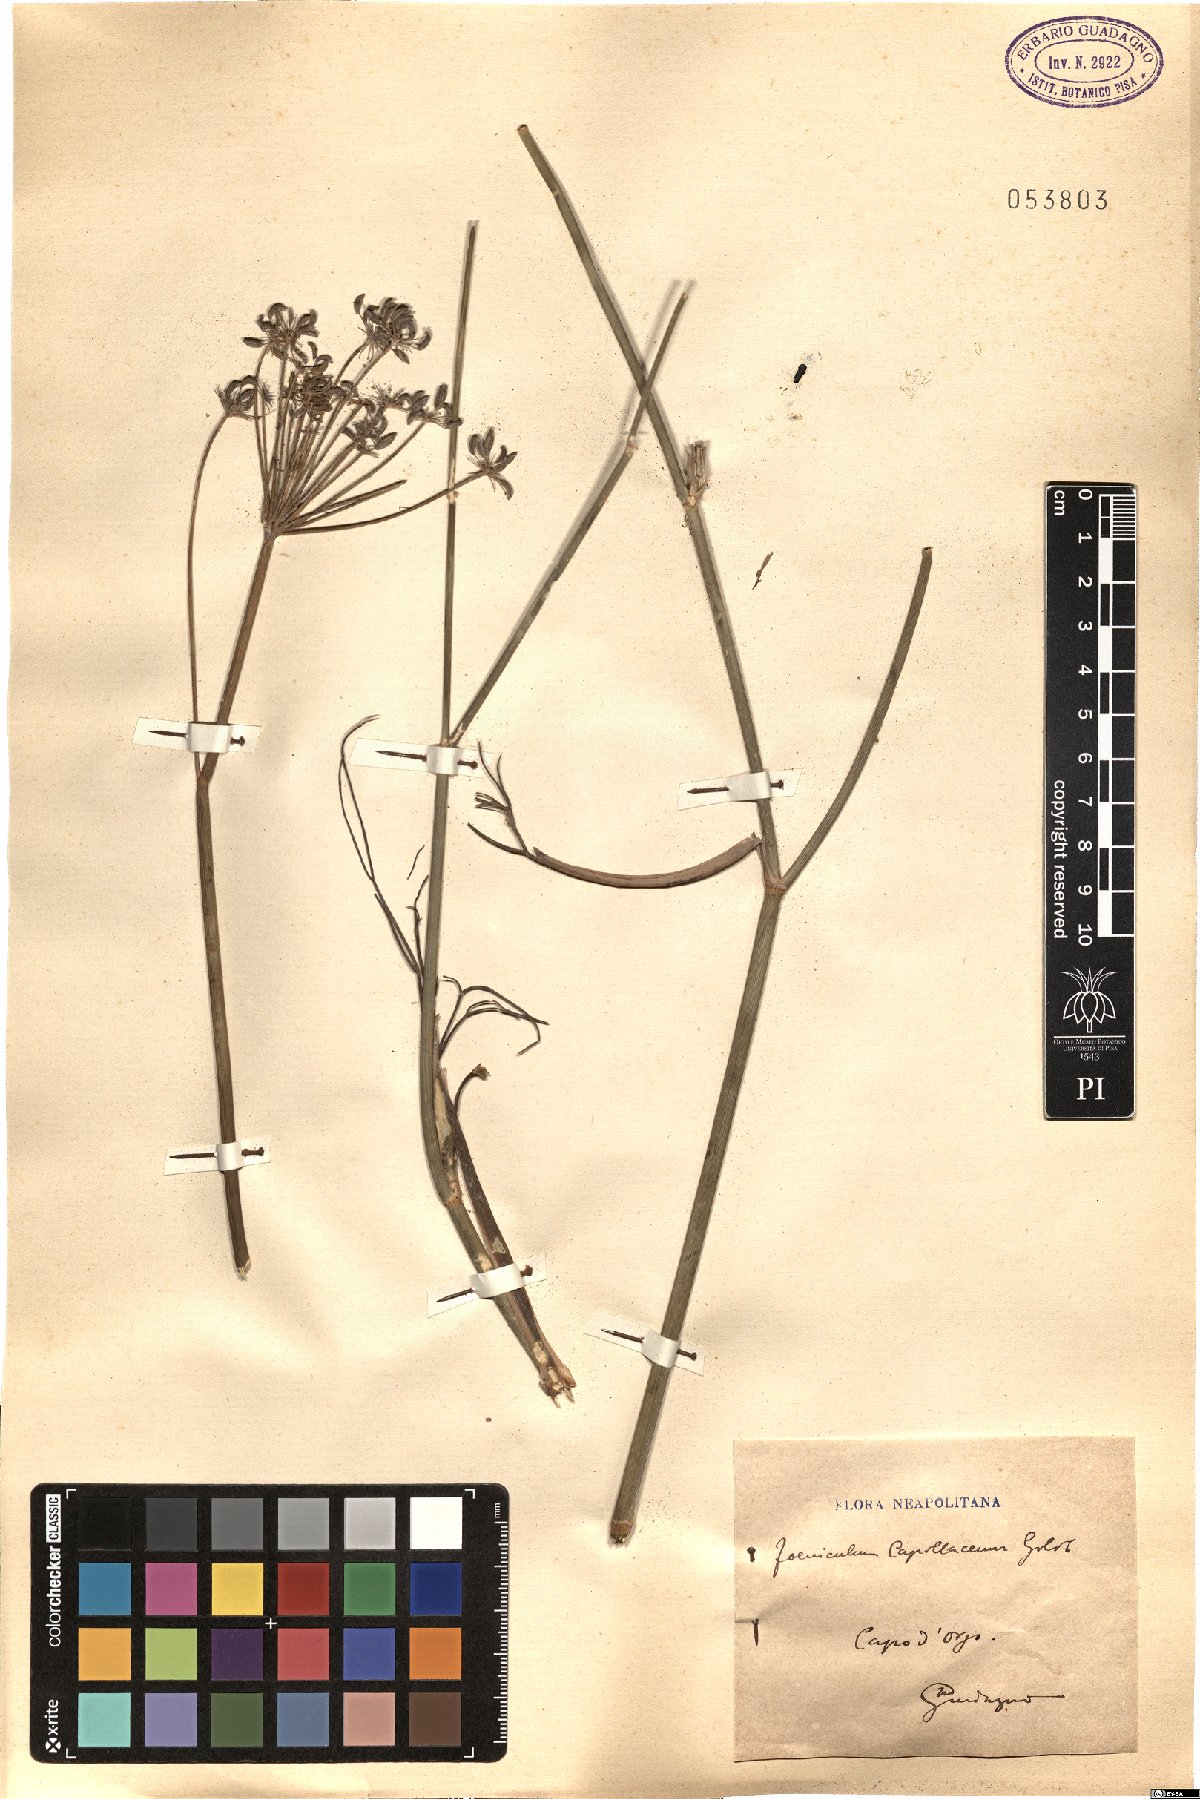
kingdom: Plantae
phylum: Tracheophyta
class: Magnoliopsida
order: Apiales
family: Apiaceae
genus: Foeniculum
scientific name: Foeniculum vulgare
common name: Fennel
